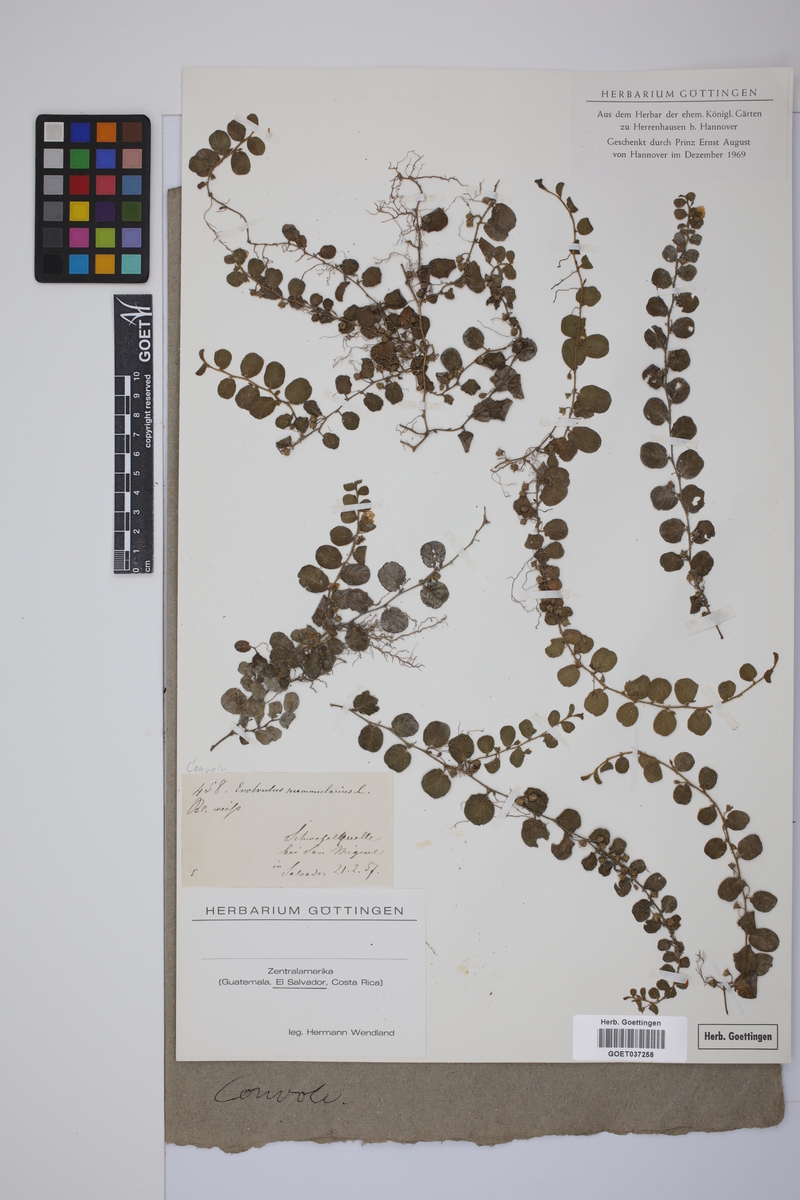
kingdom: Plantae
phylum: Tracheophyta
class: Magnoliopsida
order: Solanales
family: Convolvulaceae
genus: Evolvulus
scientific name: Evolvulus nummularius
